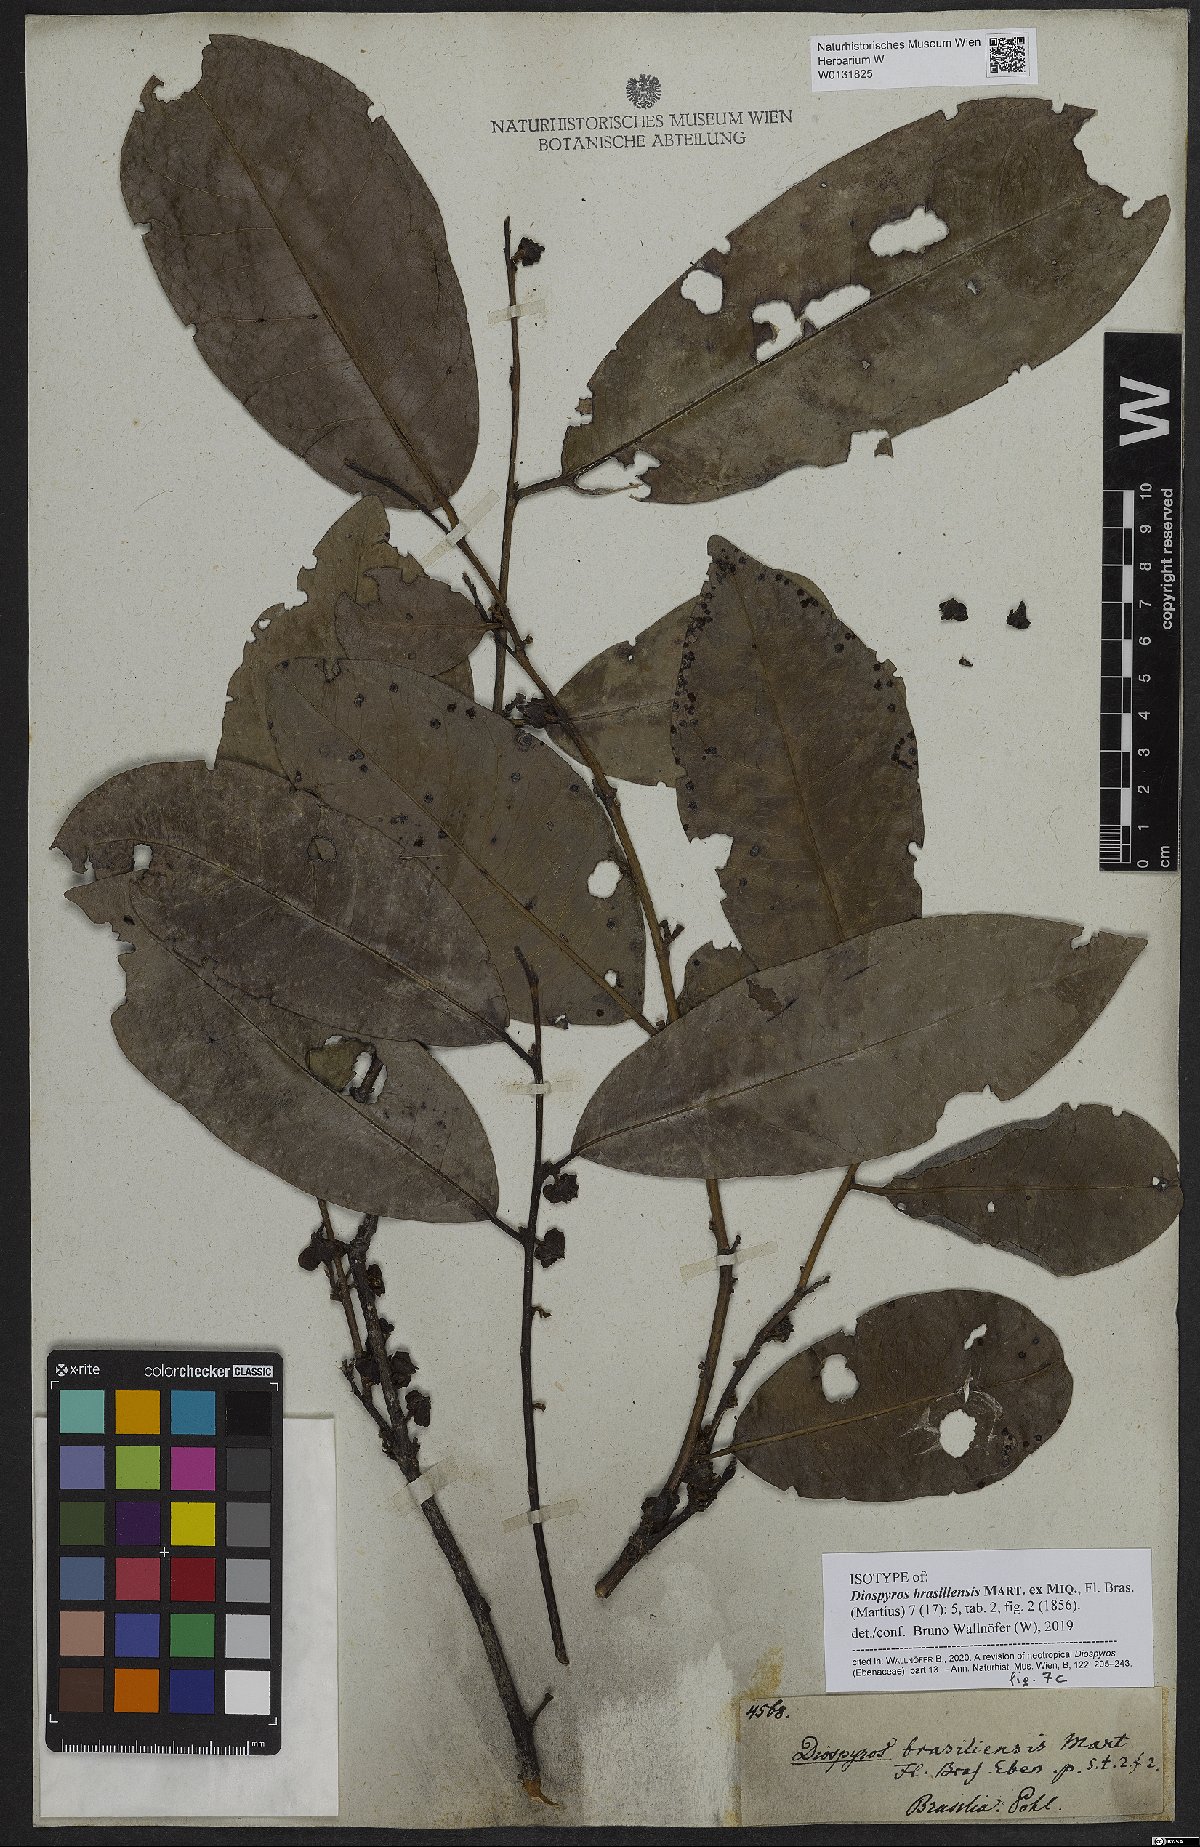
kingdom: Plantae
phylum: Tracheophyta
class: Magnoliopsida
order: Ericales
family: Ebenaceae
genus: Diospyros
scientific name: Diospyros brasiliensis
